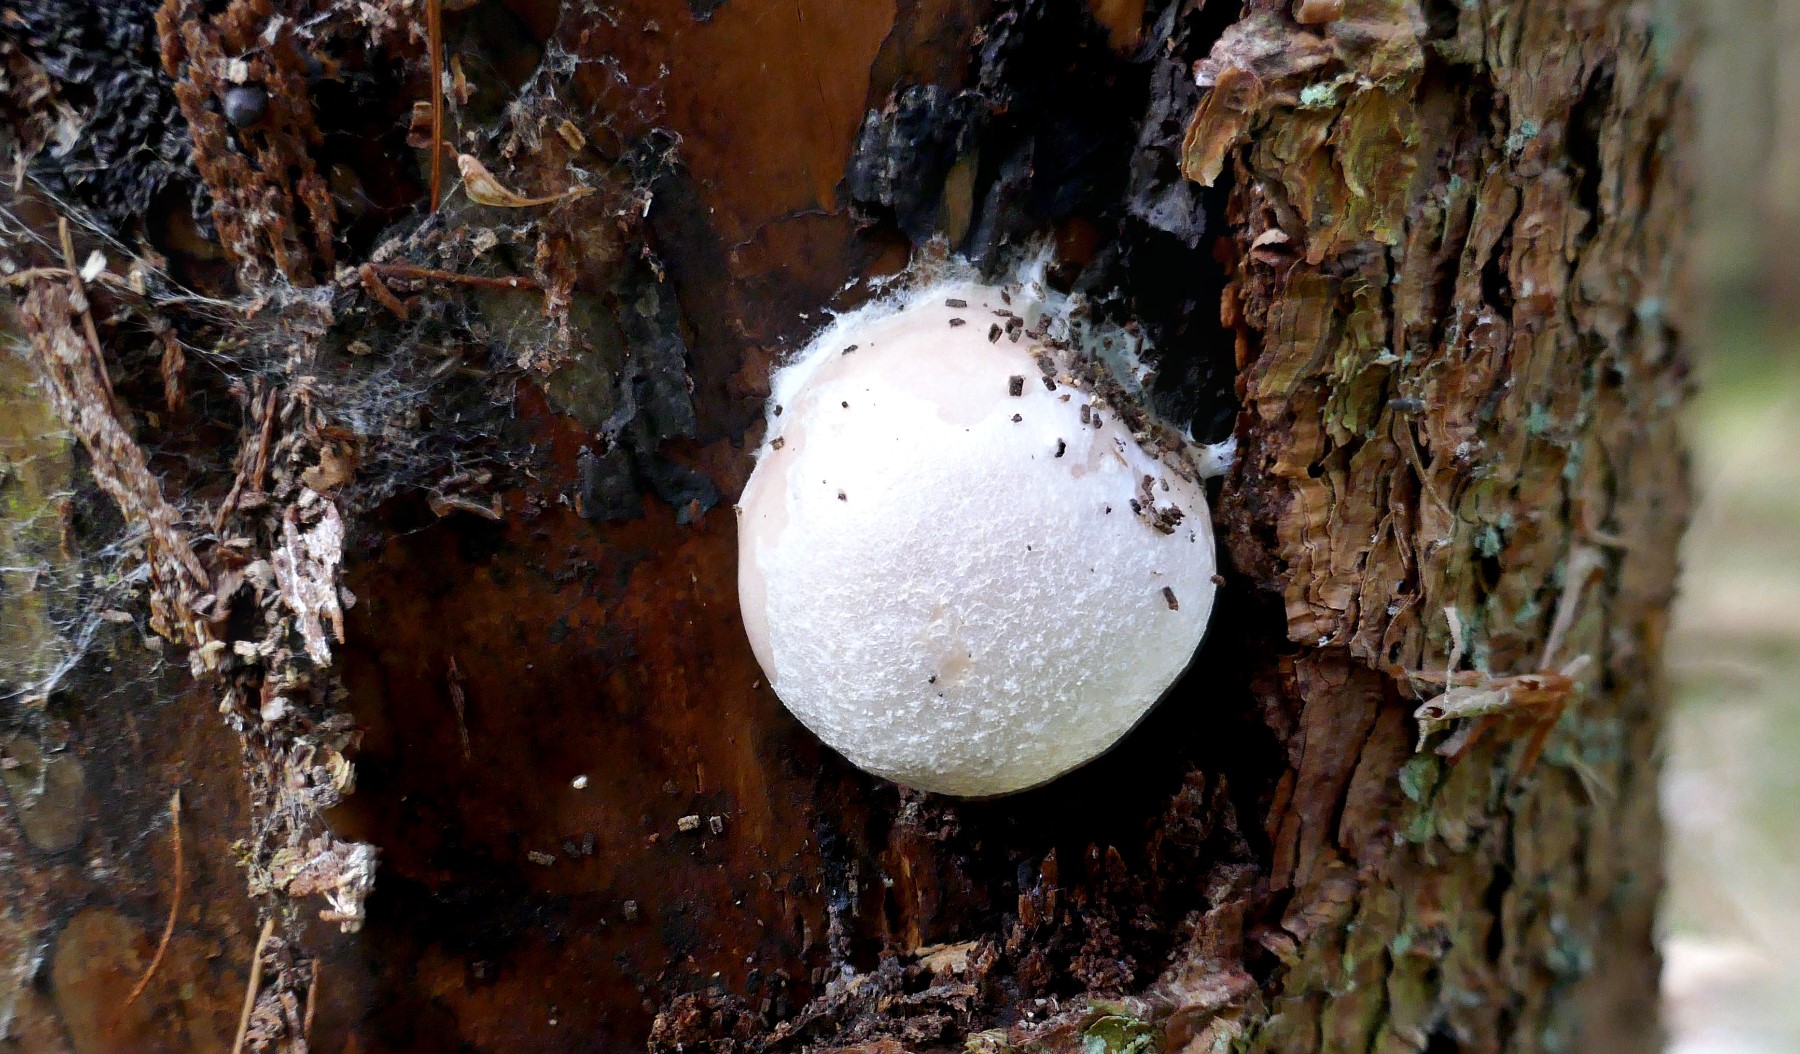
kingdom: Protozoa
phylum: Mycetozoa
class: Myxomycetes
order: Cribrariales
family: Tubiferaceae
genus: Reticularia
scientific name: Reticularia lycoperdon
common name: skinnende støvpude
